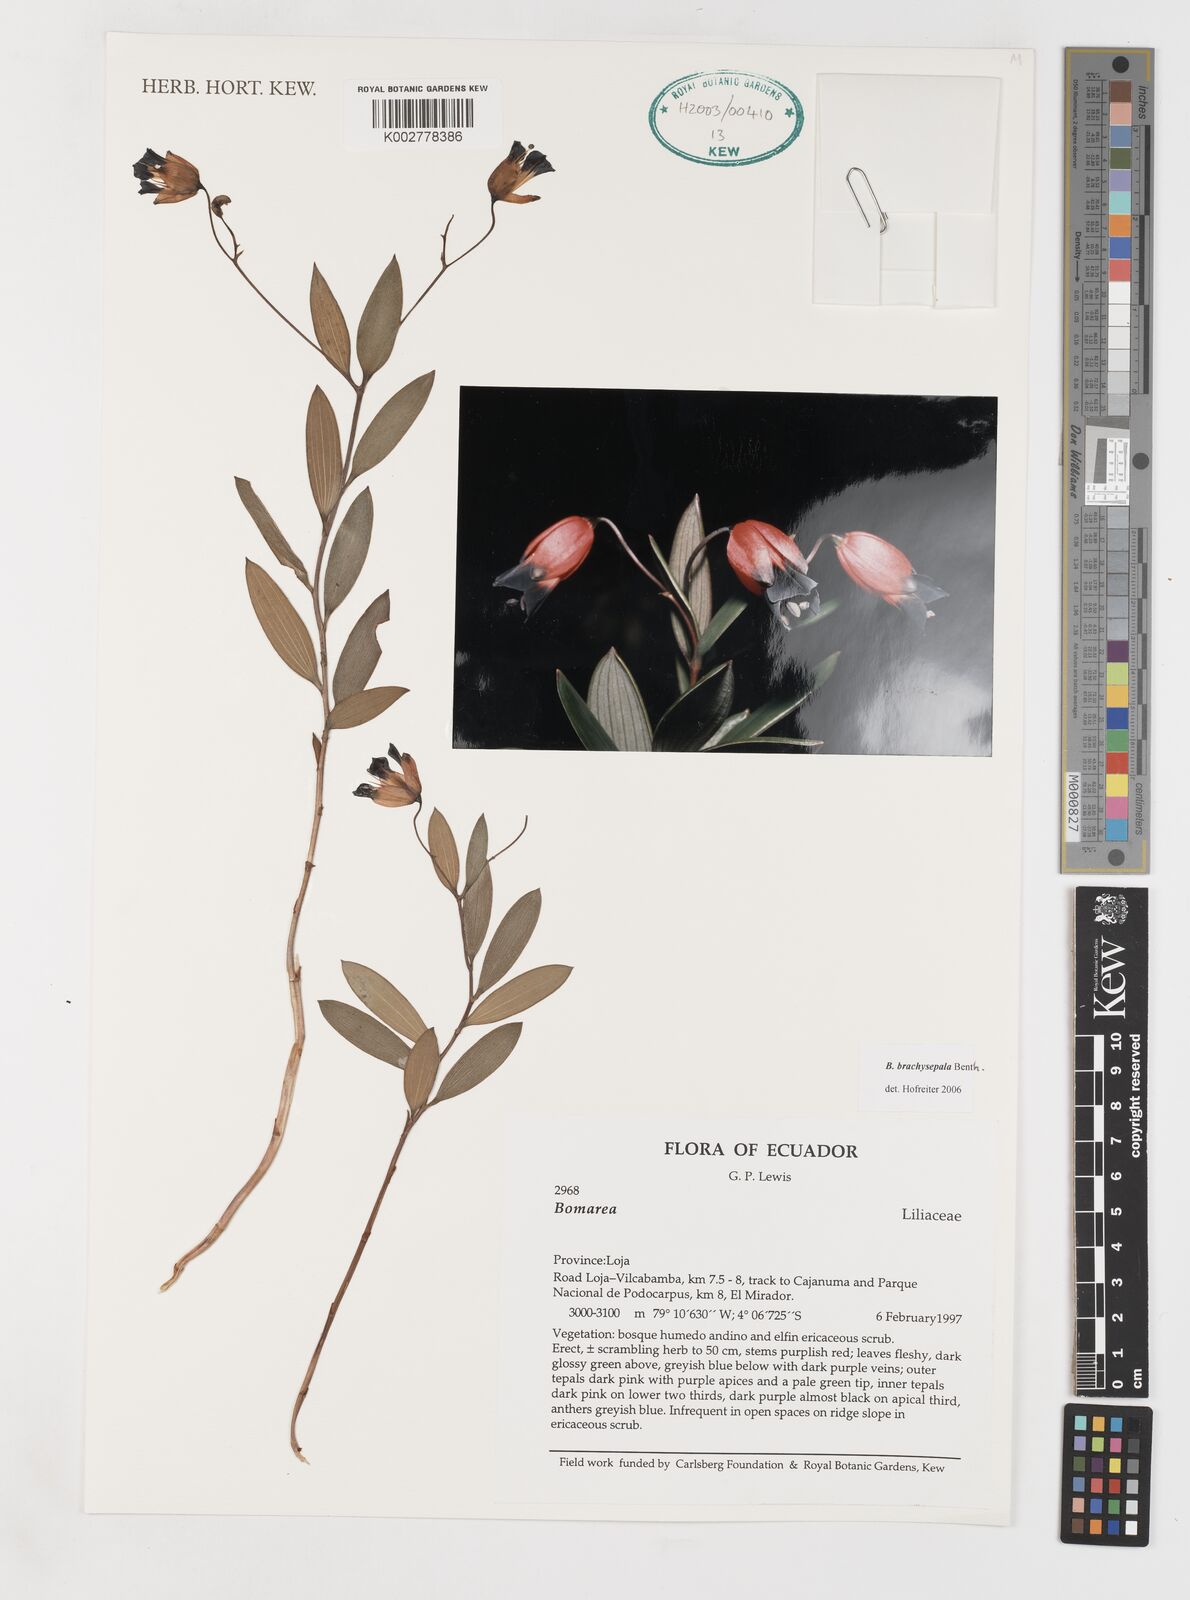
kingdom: Plantae
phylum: Tracheophyta
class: Liliopsida
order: Liliales
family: Alstroemeriaceae
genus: Bomarea
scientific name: Bomarea brachysepala
